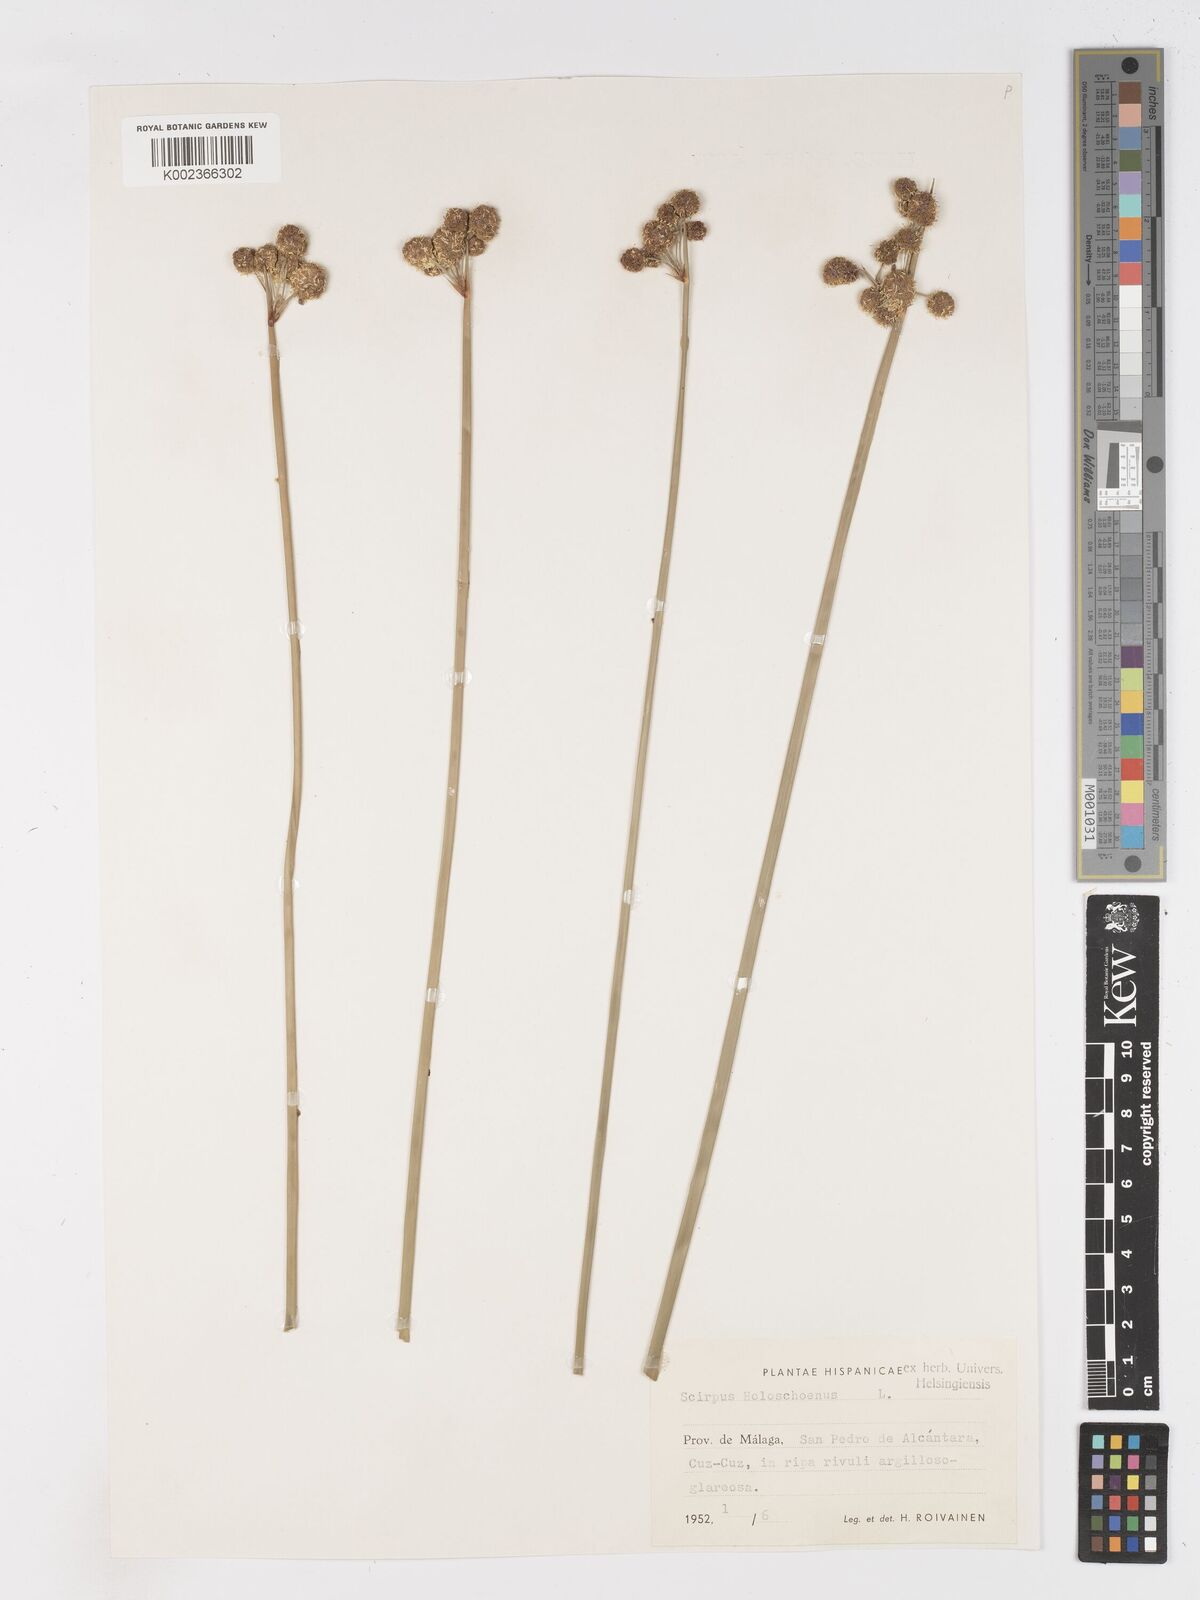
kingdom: Plantae
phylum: Tracheophyta
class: Liliopsida
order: Poales
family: Cyperaceae
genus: Scirpoides
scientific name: Scirpoides holoschoenus
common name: Round-headed club-rush
